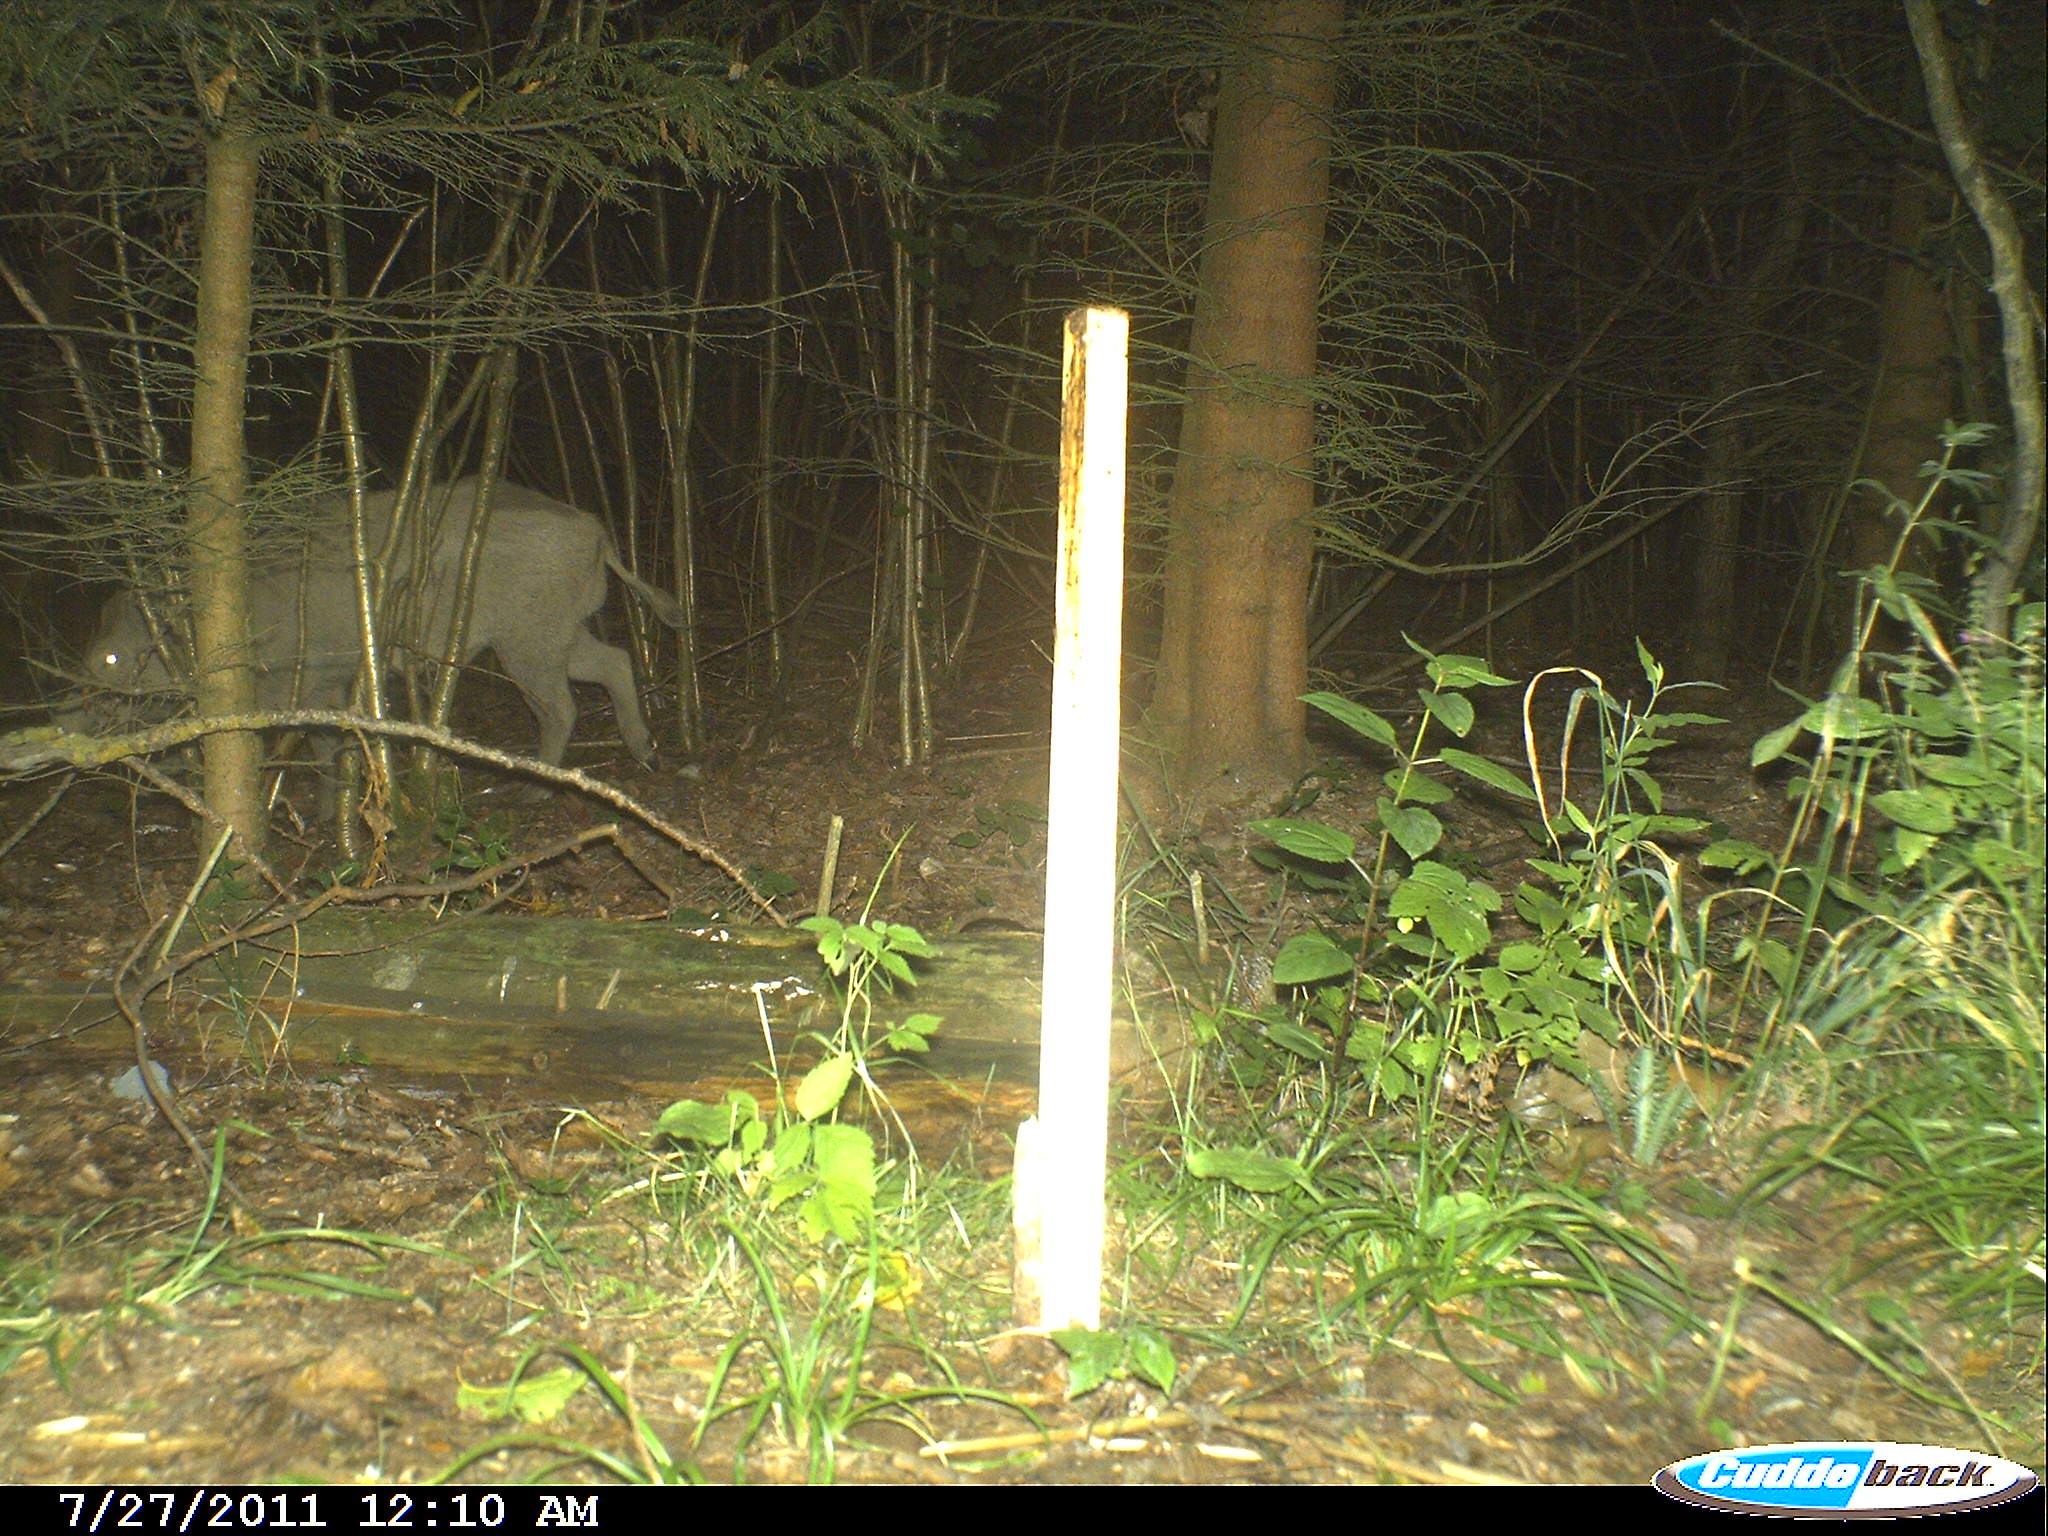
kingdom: Animalia
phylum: Chordata
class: Mammalia
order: Artiodactyla
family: Suidae
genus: Sus
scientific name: Sus scrofa
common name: Wild boar
